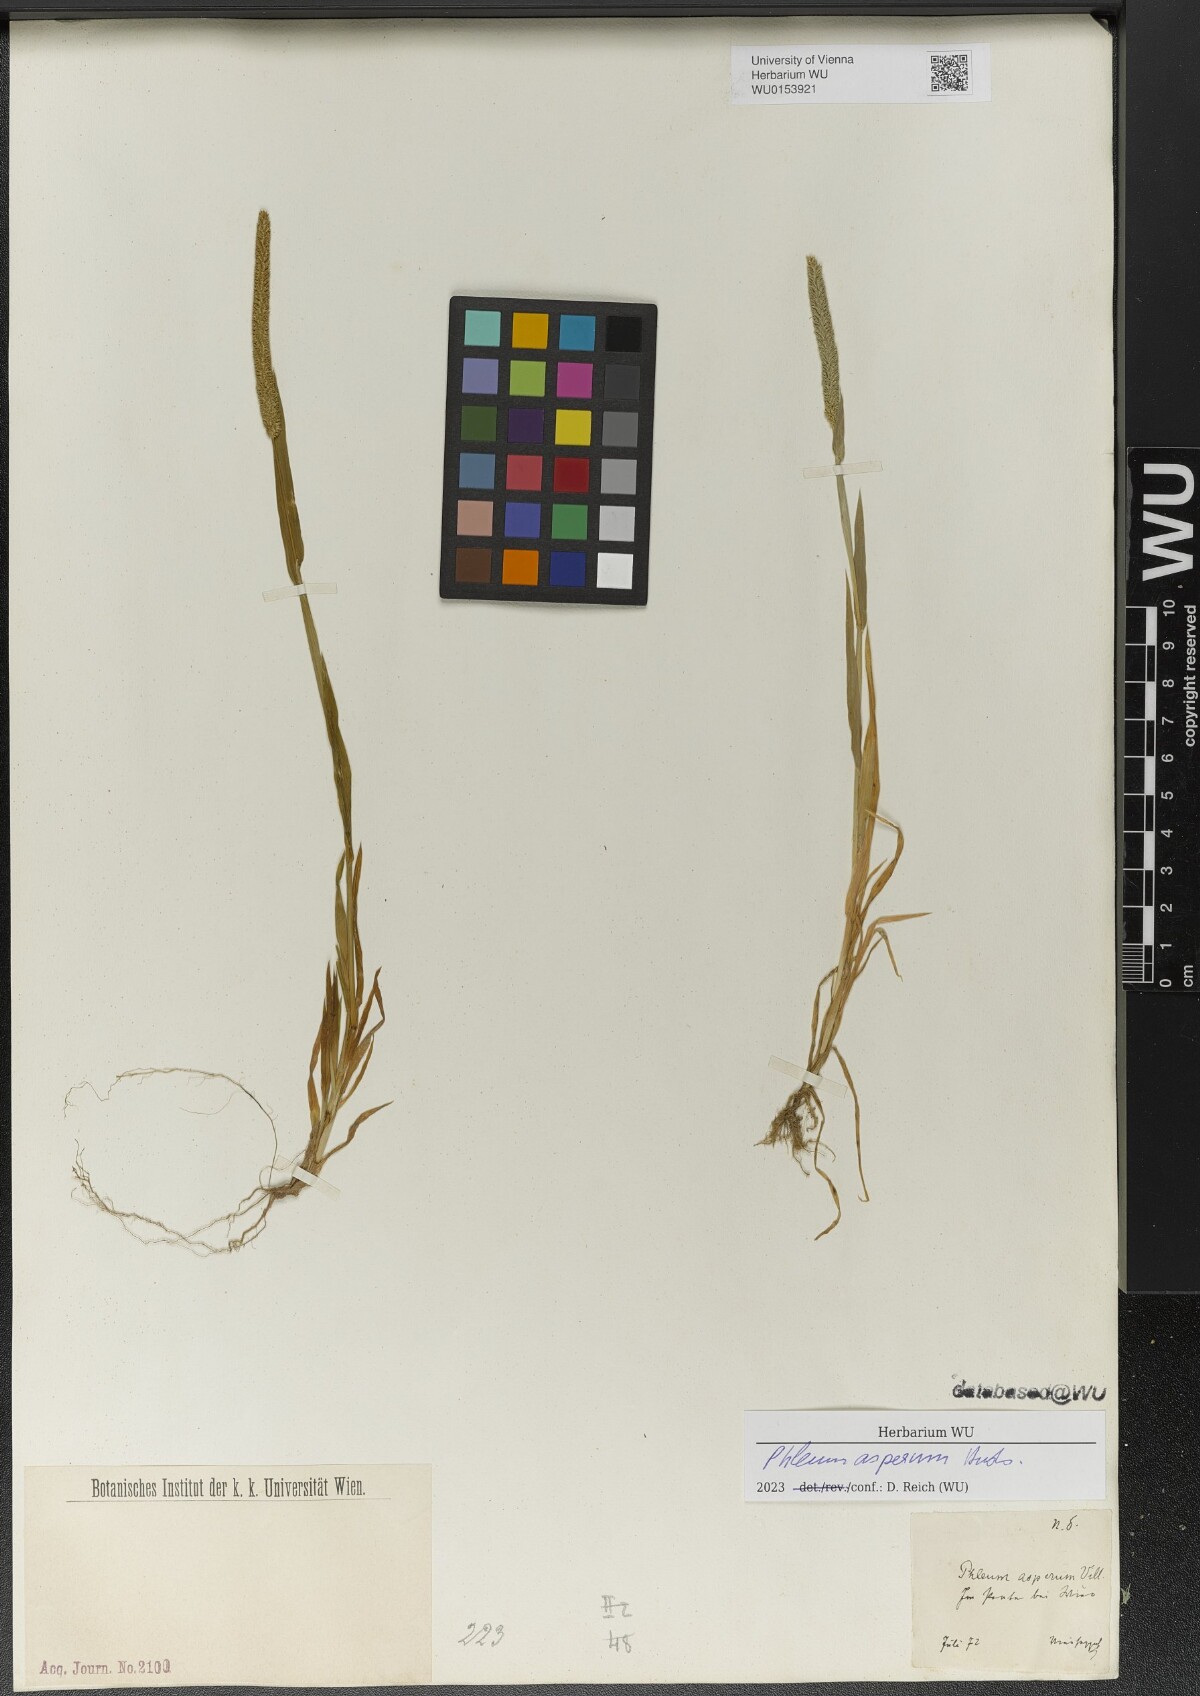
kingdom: Plantae
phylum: Tracheophyta
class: Liliopsida
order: Poales
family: Poaceae
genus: Phleum
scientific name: Phleum paniculatum
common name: British timothy
